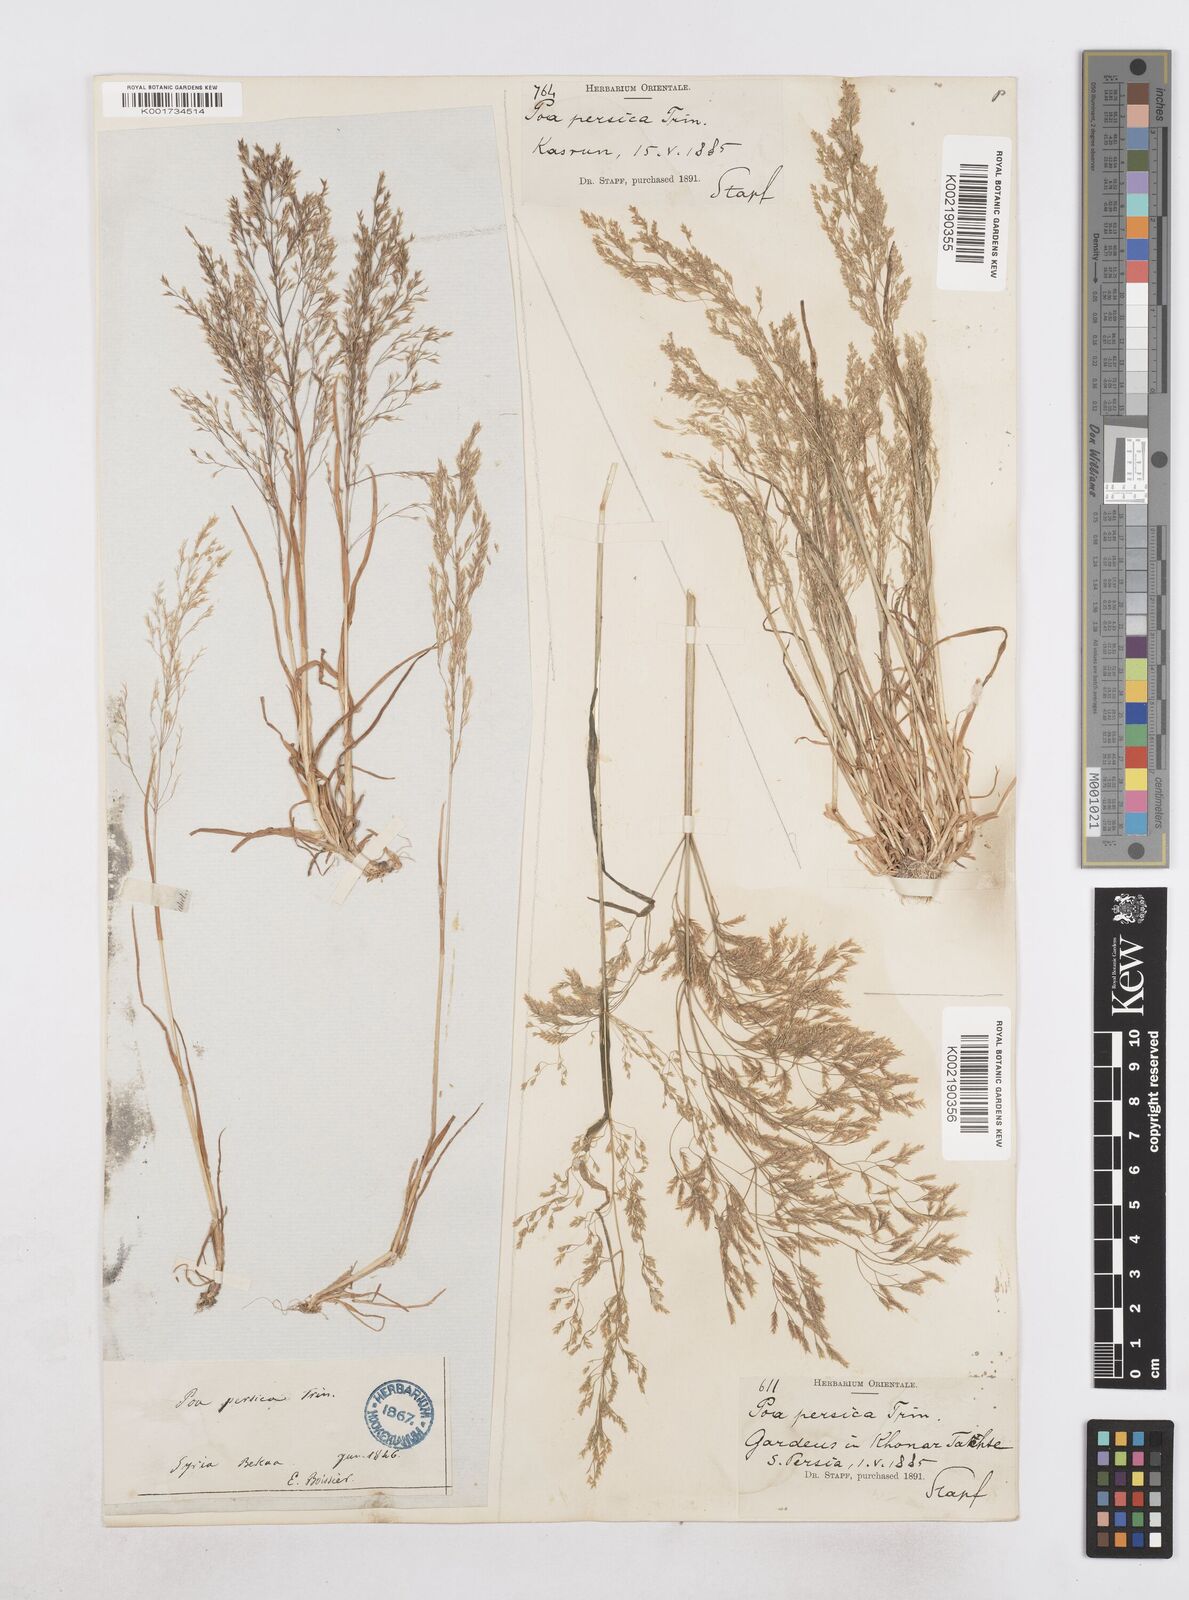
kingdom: Plantae
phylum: Tracheophyta
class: Liliopsida
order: Poales
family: Poaceae
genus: Poa
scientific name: Poa persica
